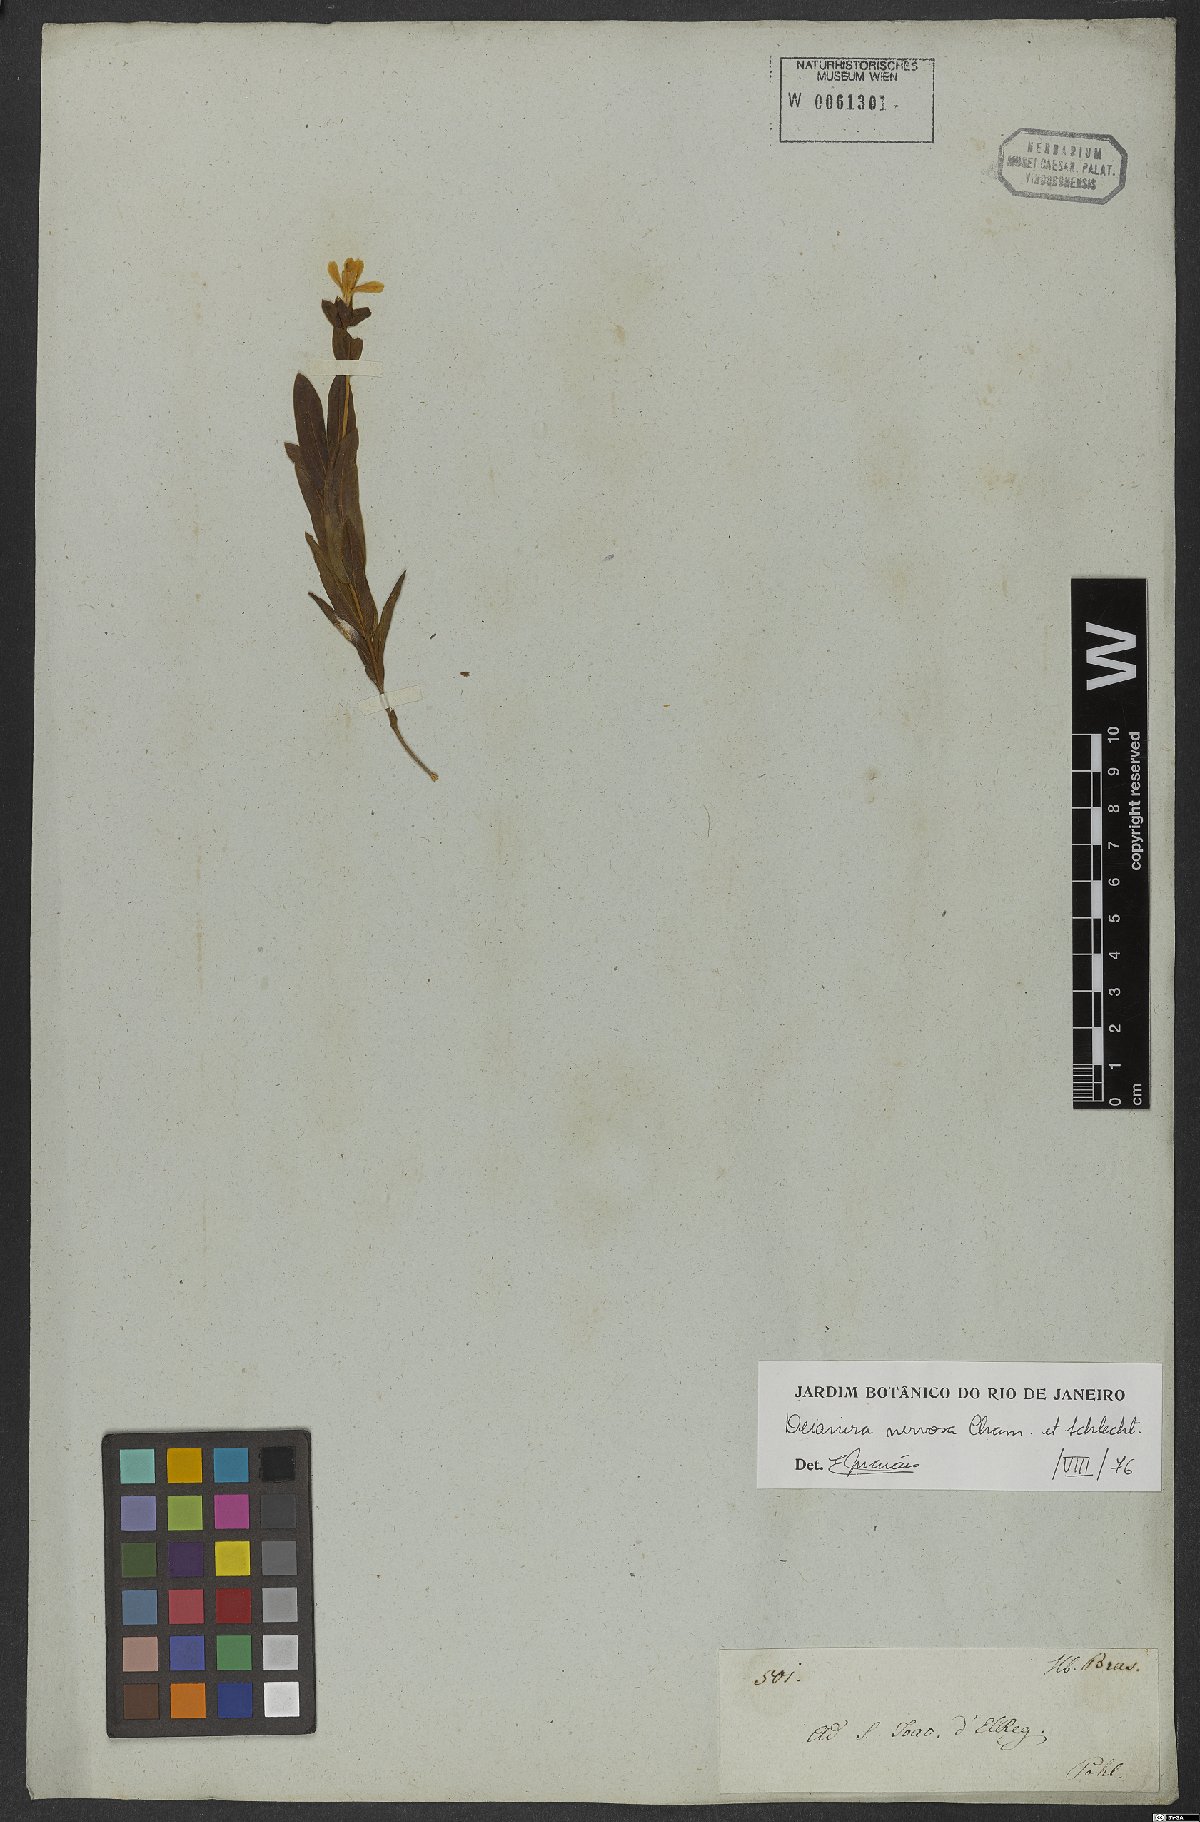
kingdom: Plantae
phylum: Tracheophyta
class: Magnoliopsida
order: Gentianales
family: Gentianaceae
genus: Deianira
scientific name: Deianira nervosa
